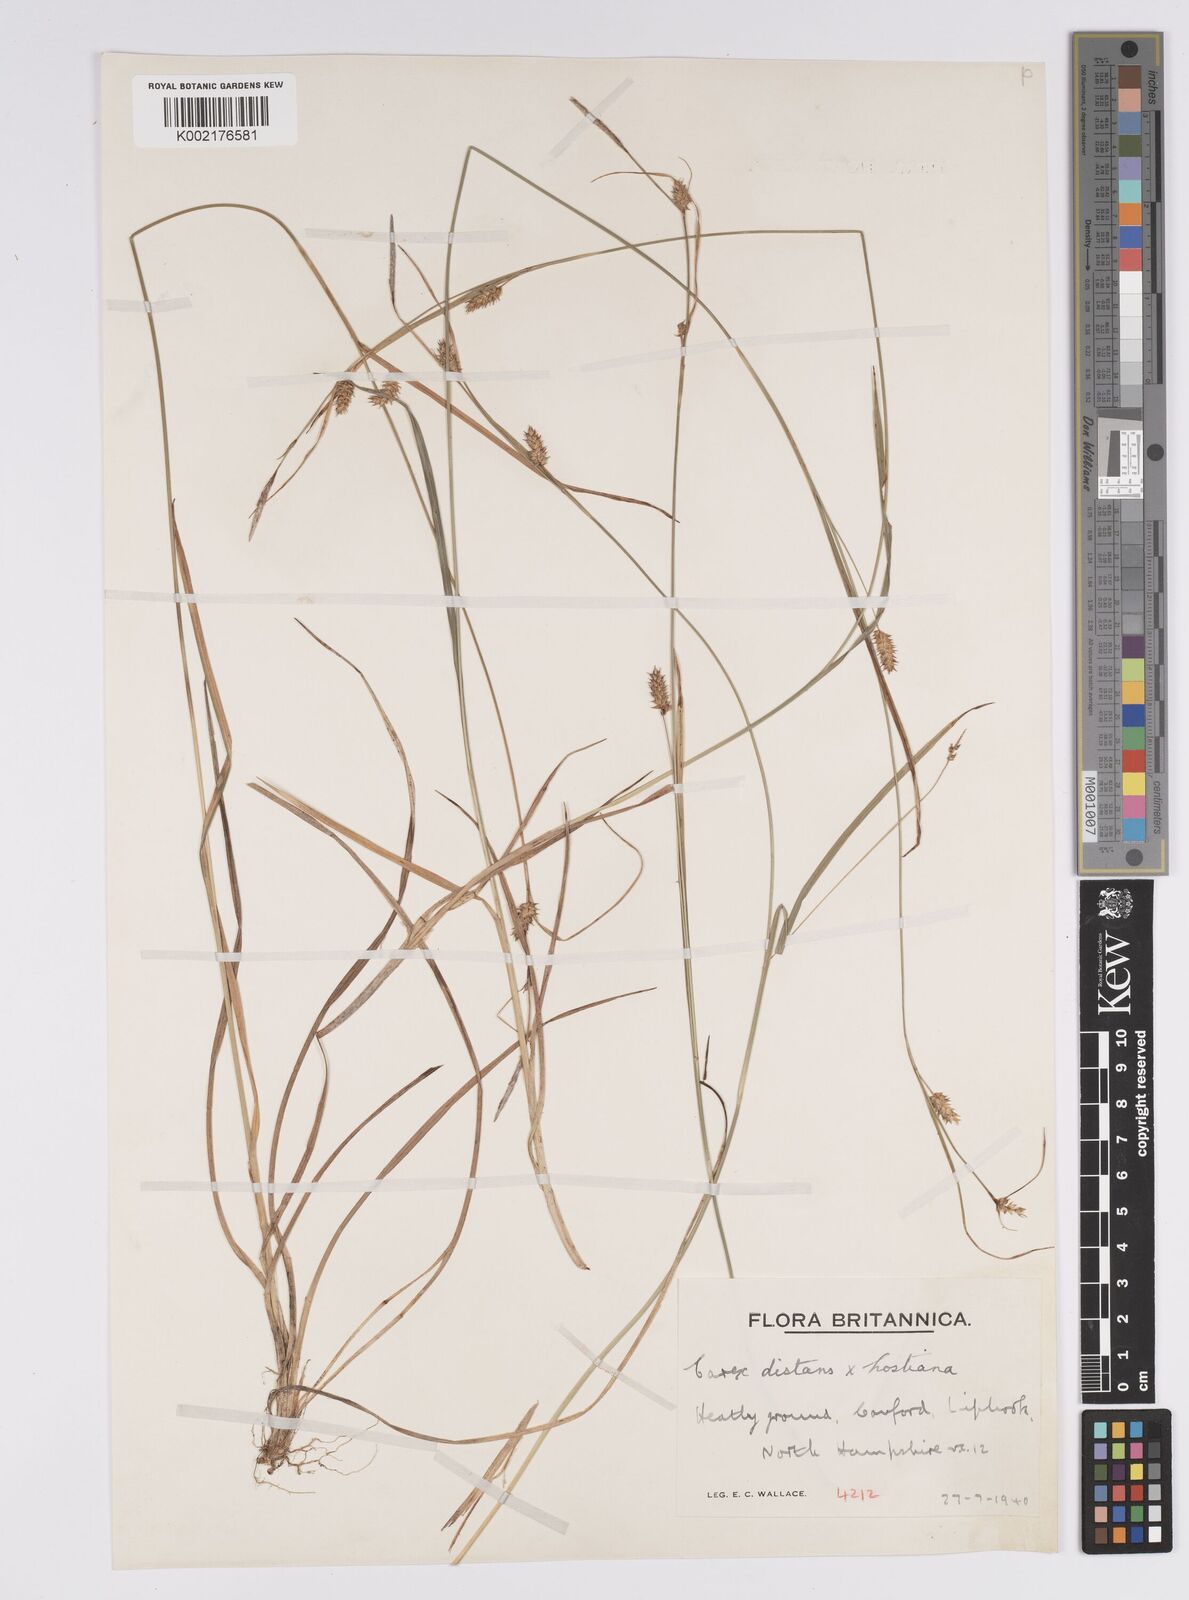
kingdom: Plantae
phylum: Tracheophyta
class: Liliopsida
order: Poales
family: Cyperaceae
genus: Carex
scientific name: Carex distans
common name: Distant sedge
